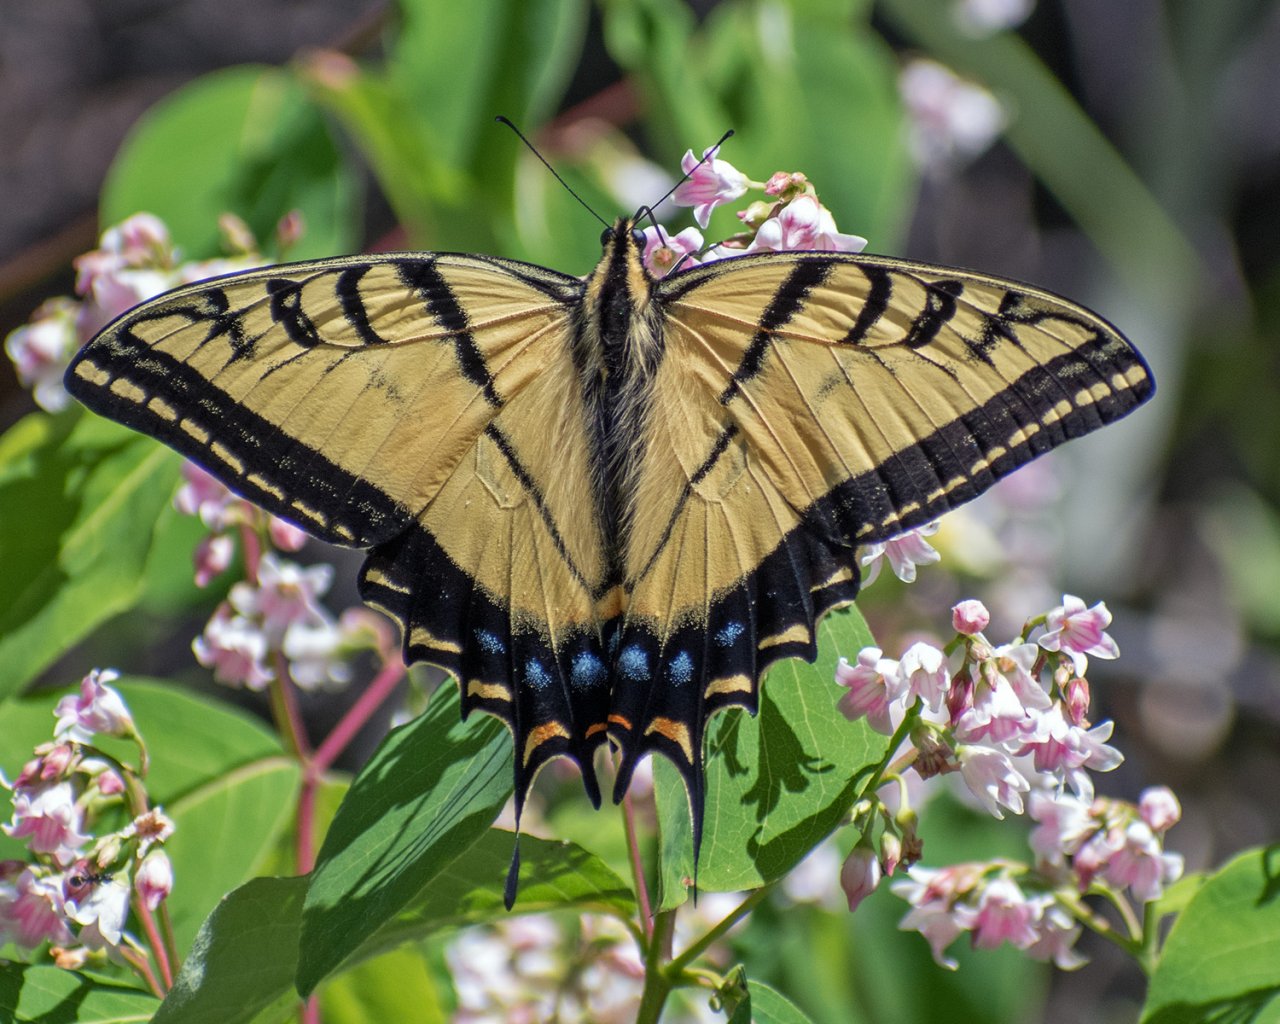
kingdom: Animalia
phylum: Arthropoda
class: Insecta
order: Lepidoptera
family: Papilionidae
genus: Papilio
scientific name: Papilio multicaudata
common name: Two-tailed Swallowtail
